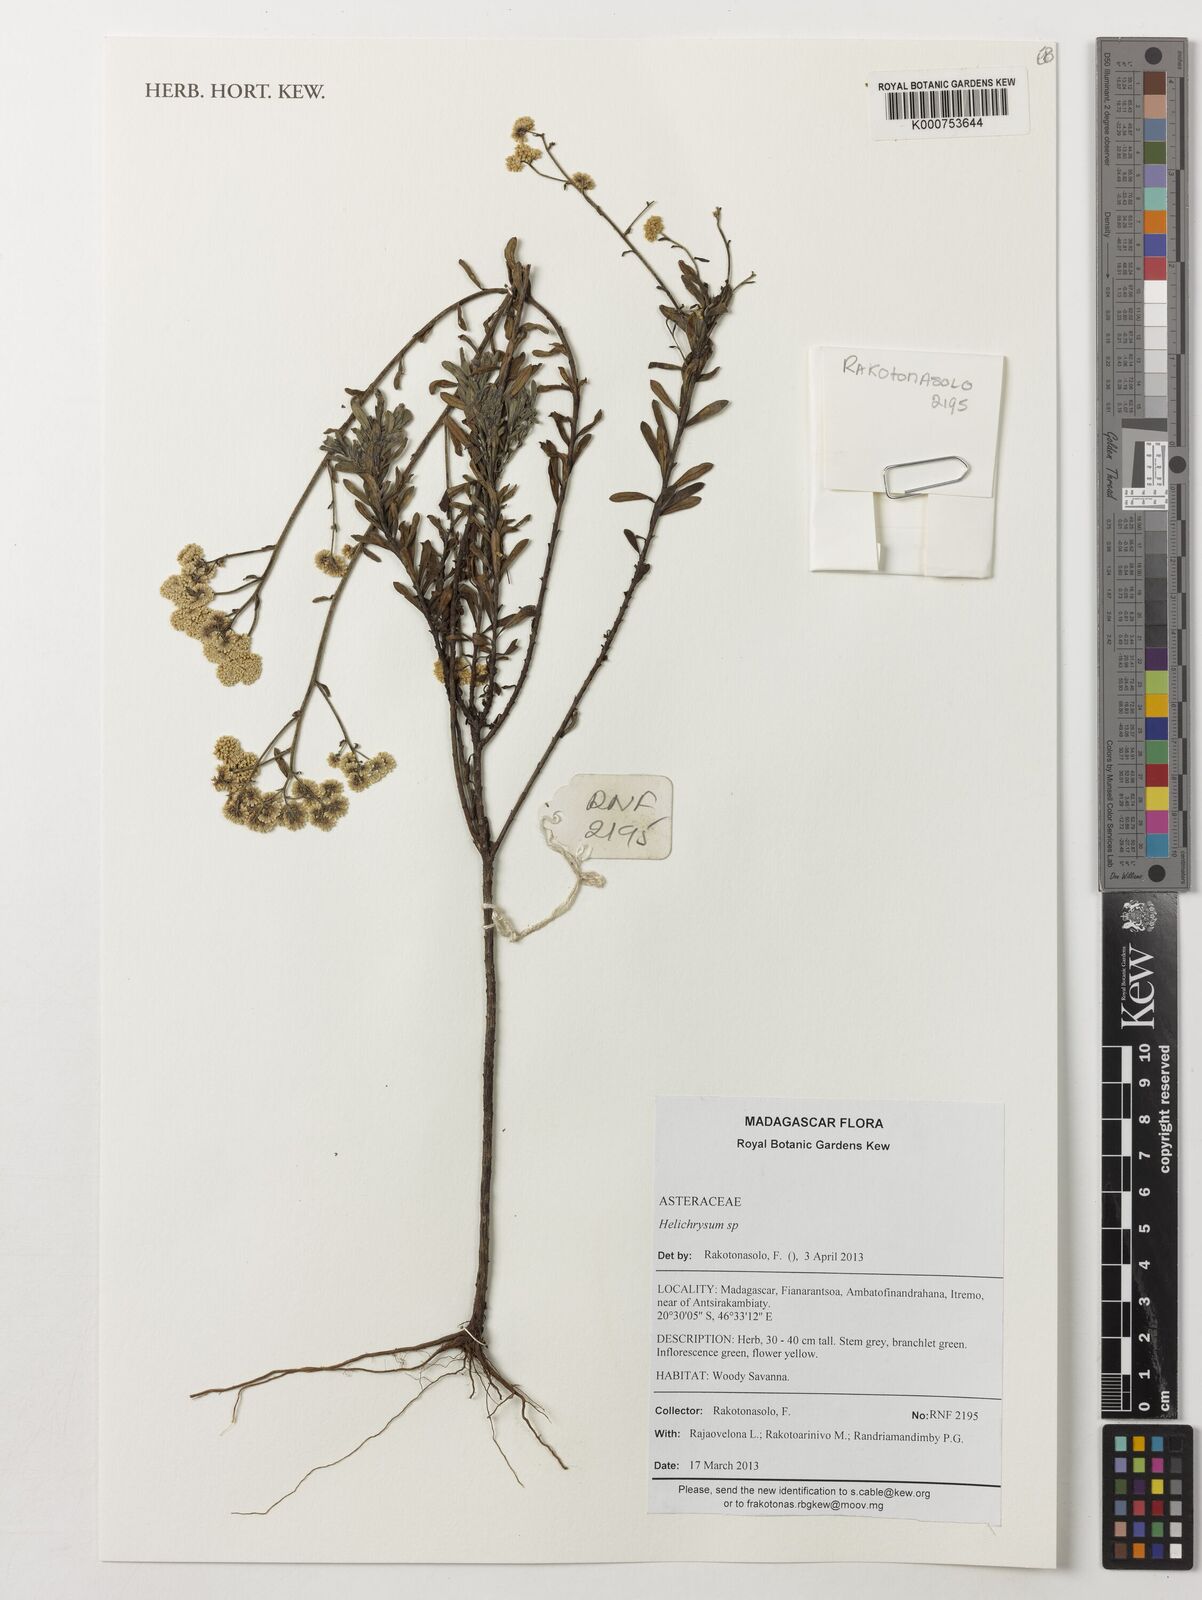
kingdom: Plantae
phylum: Tracheophyta
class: Magnoliopsida
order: Asterales
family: Asteraceae
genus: Helichrysum
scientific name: Helichrysum
